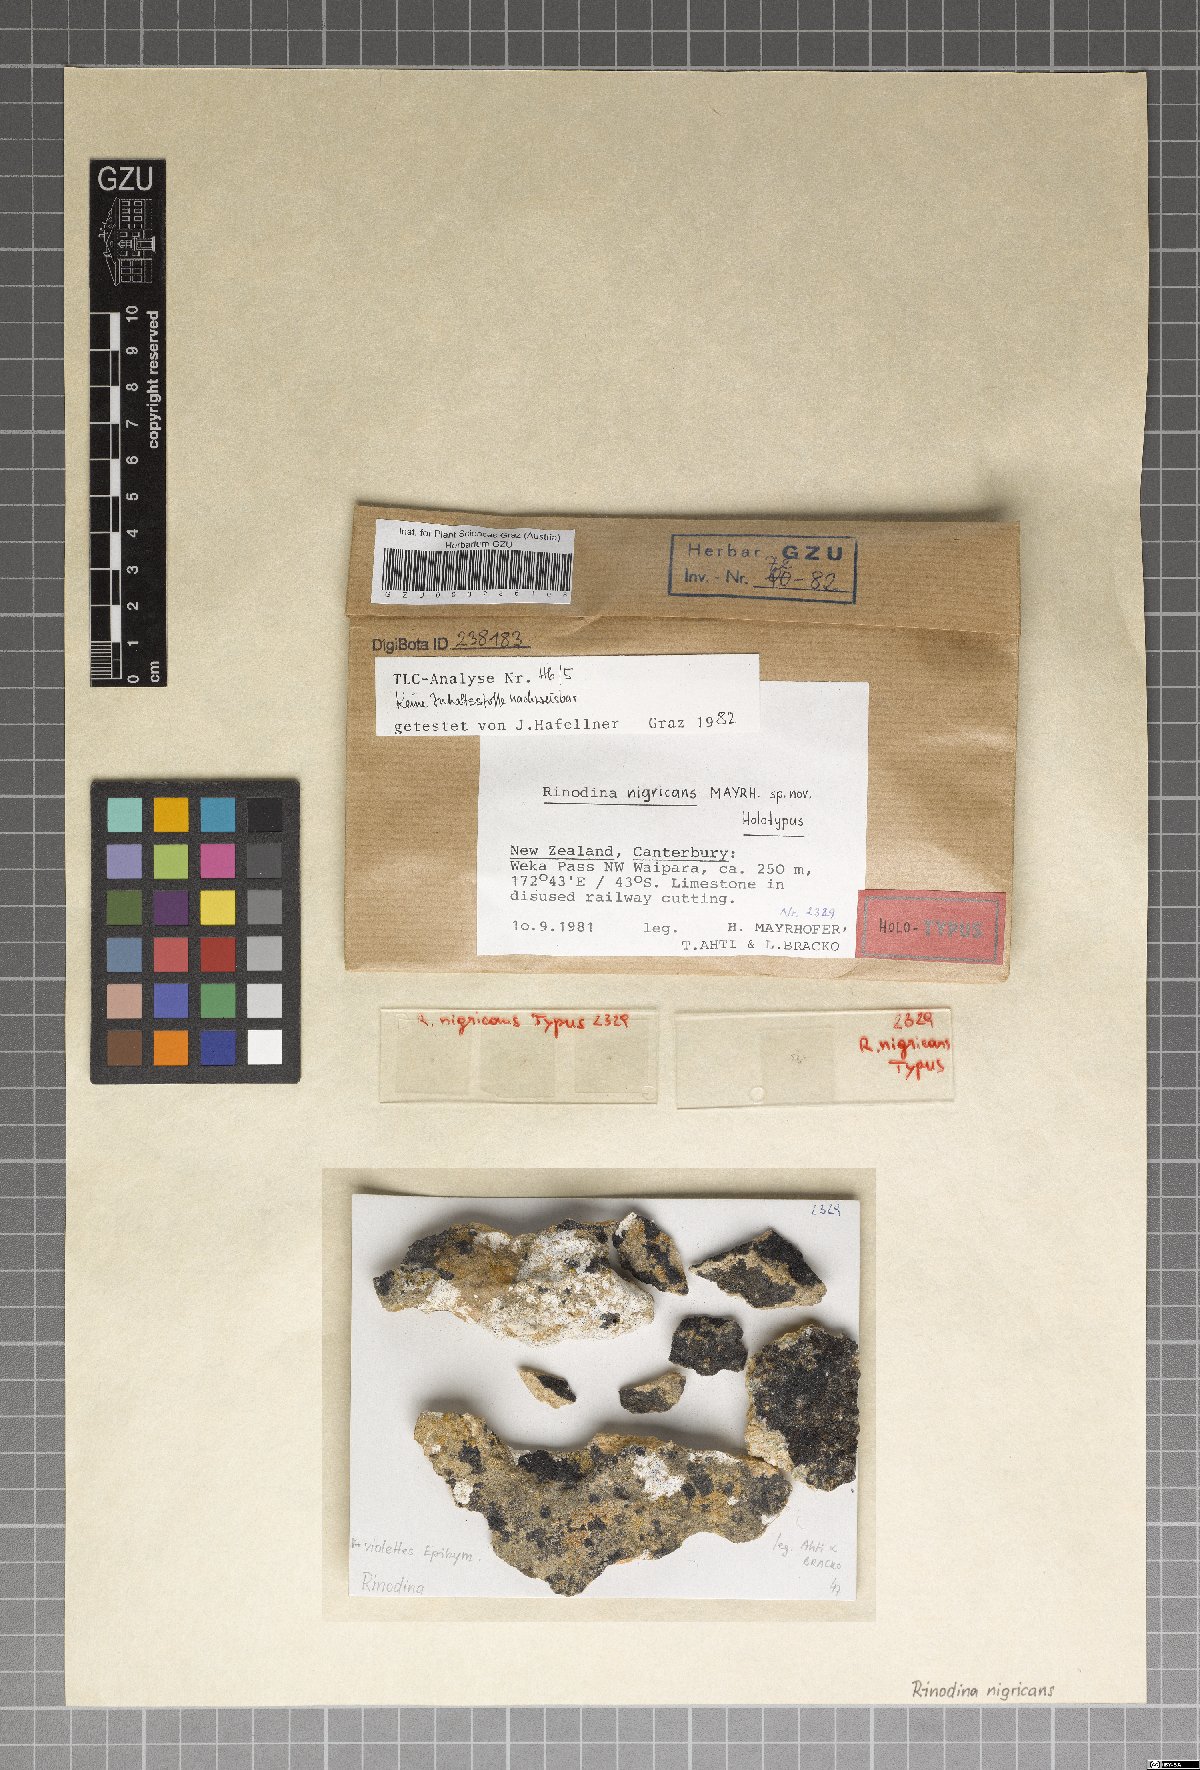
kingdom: Fungi
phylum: Ascomycota
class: Lecanoromycetes
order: Caliciales
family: Physciaceae
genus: Rinodina
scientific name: Rinodina
